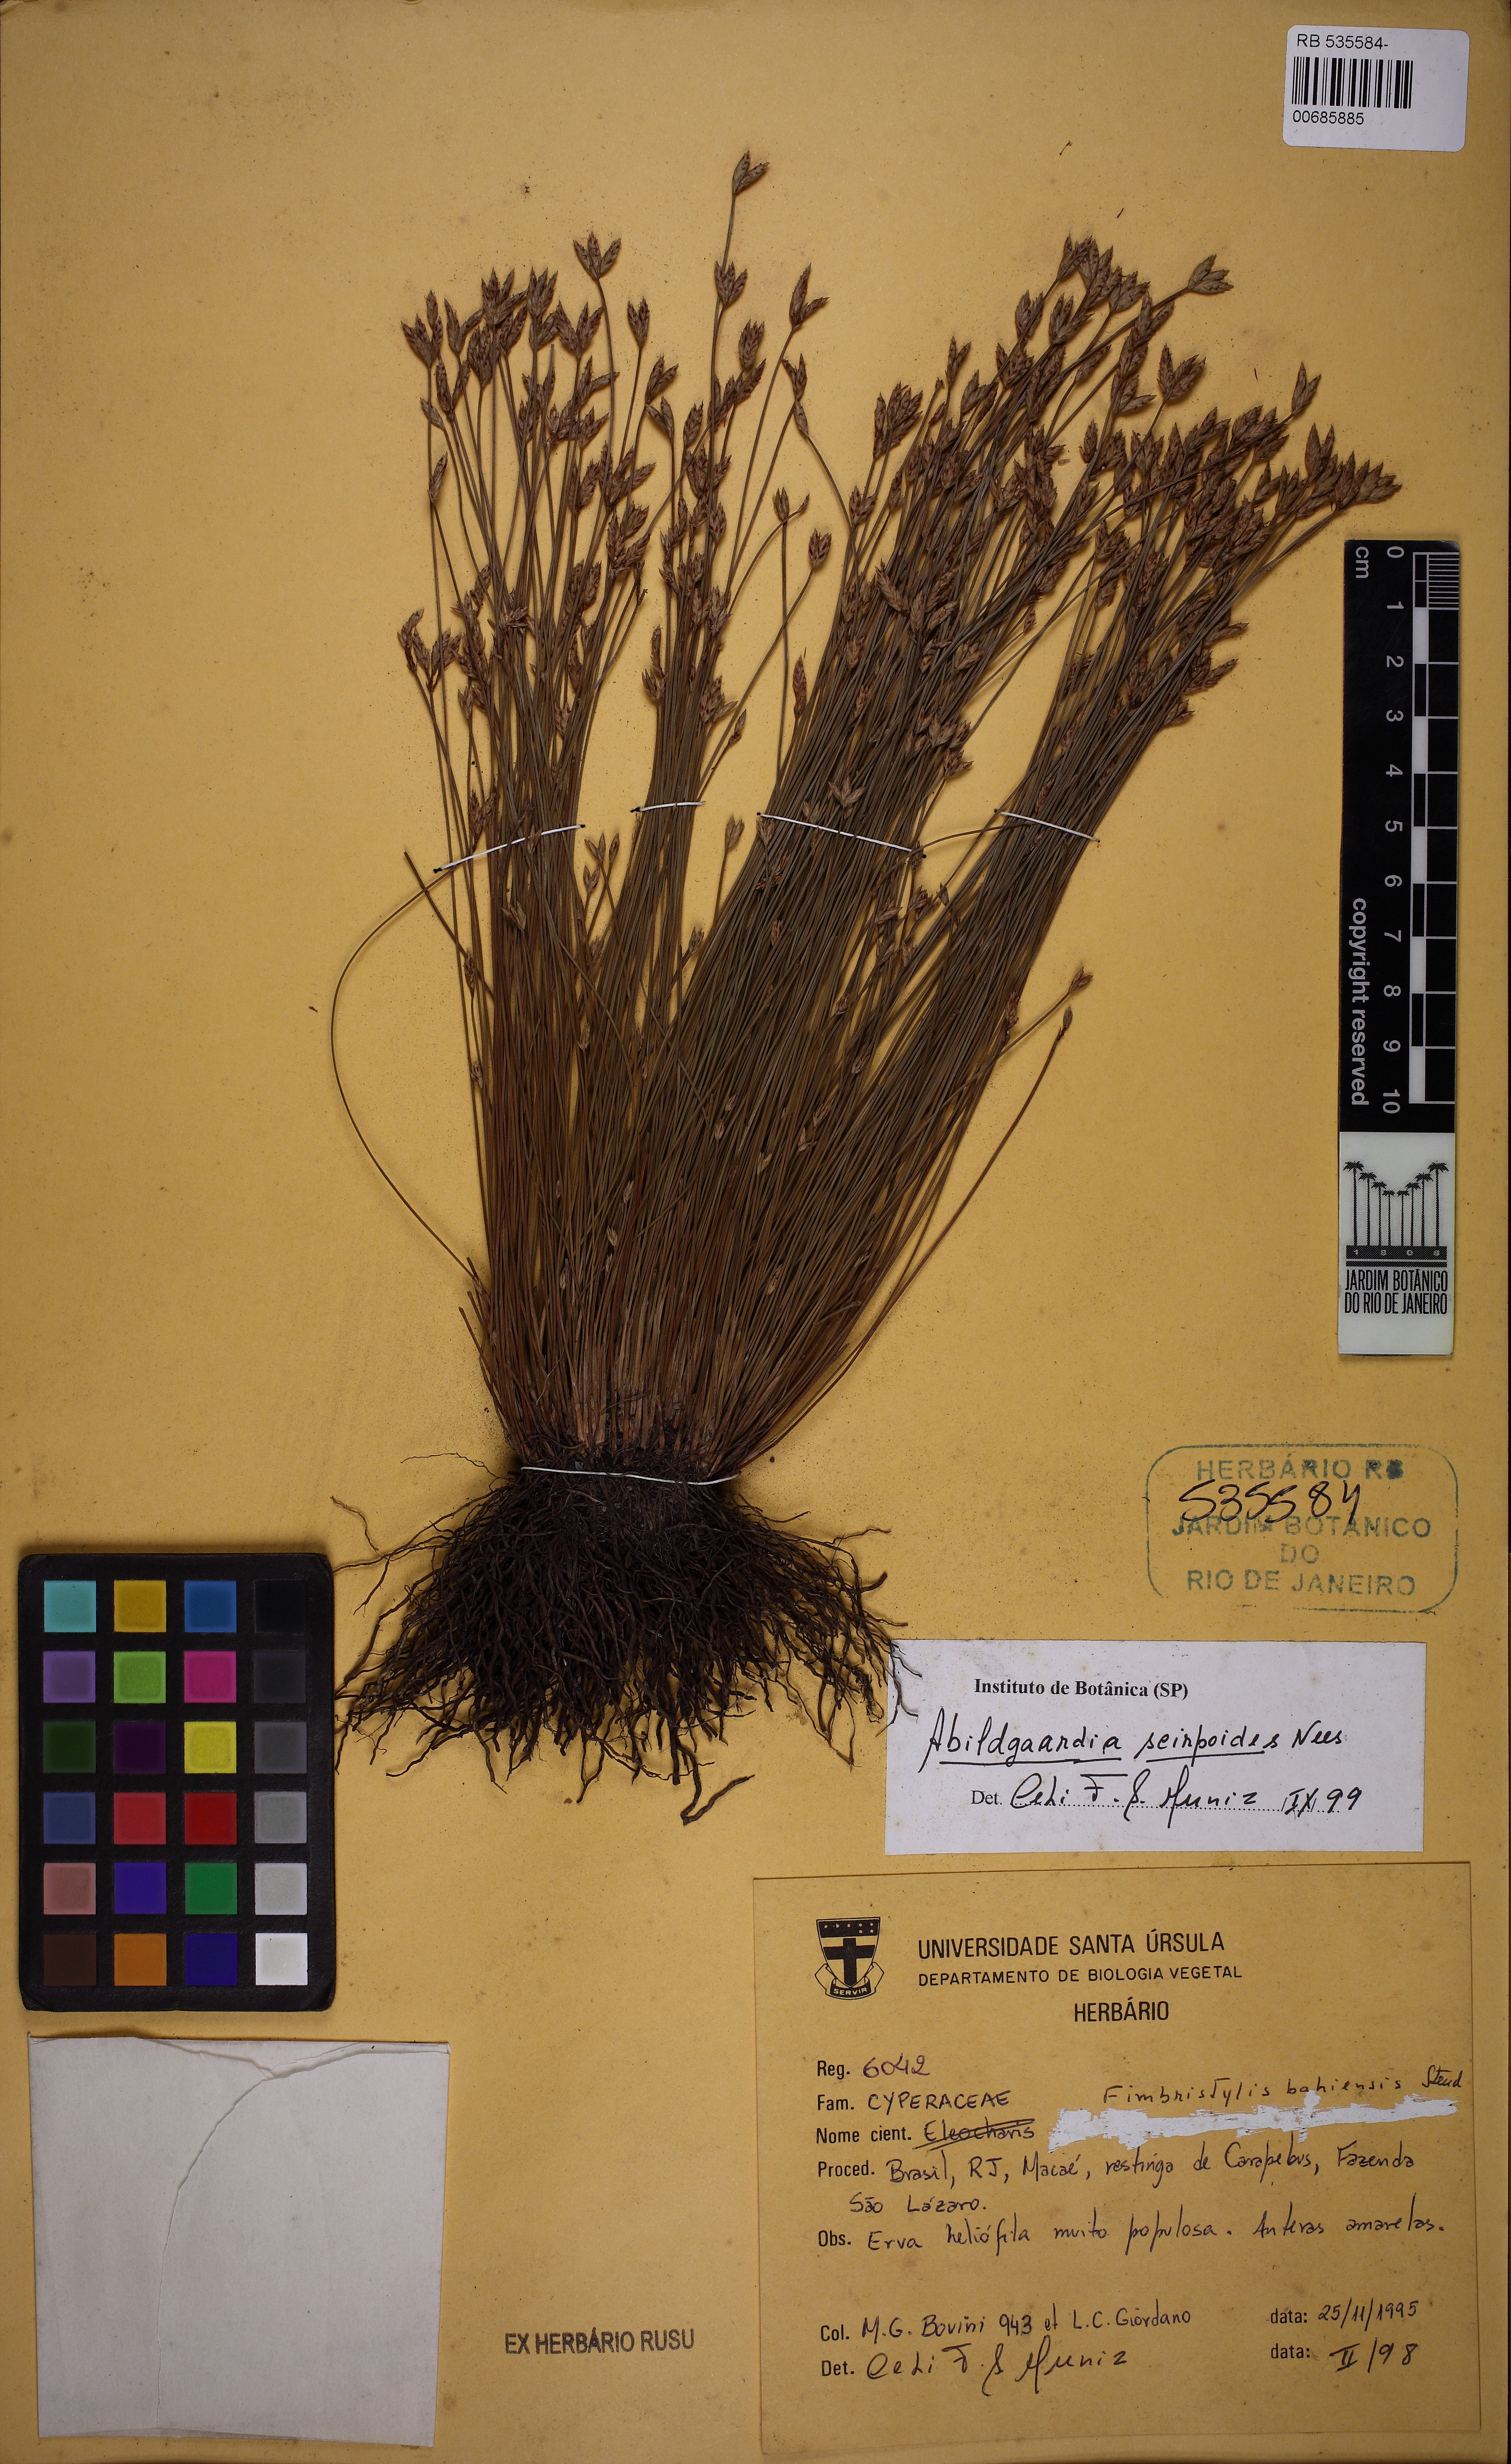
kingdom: Plantae
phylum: Tracheophyta
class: Liliopsida
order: Poales
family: Cyperaceae
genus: Fimbristylis
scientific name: Fimbristylis bahiensis
